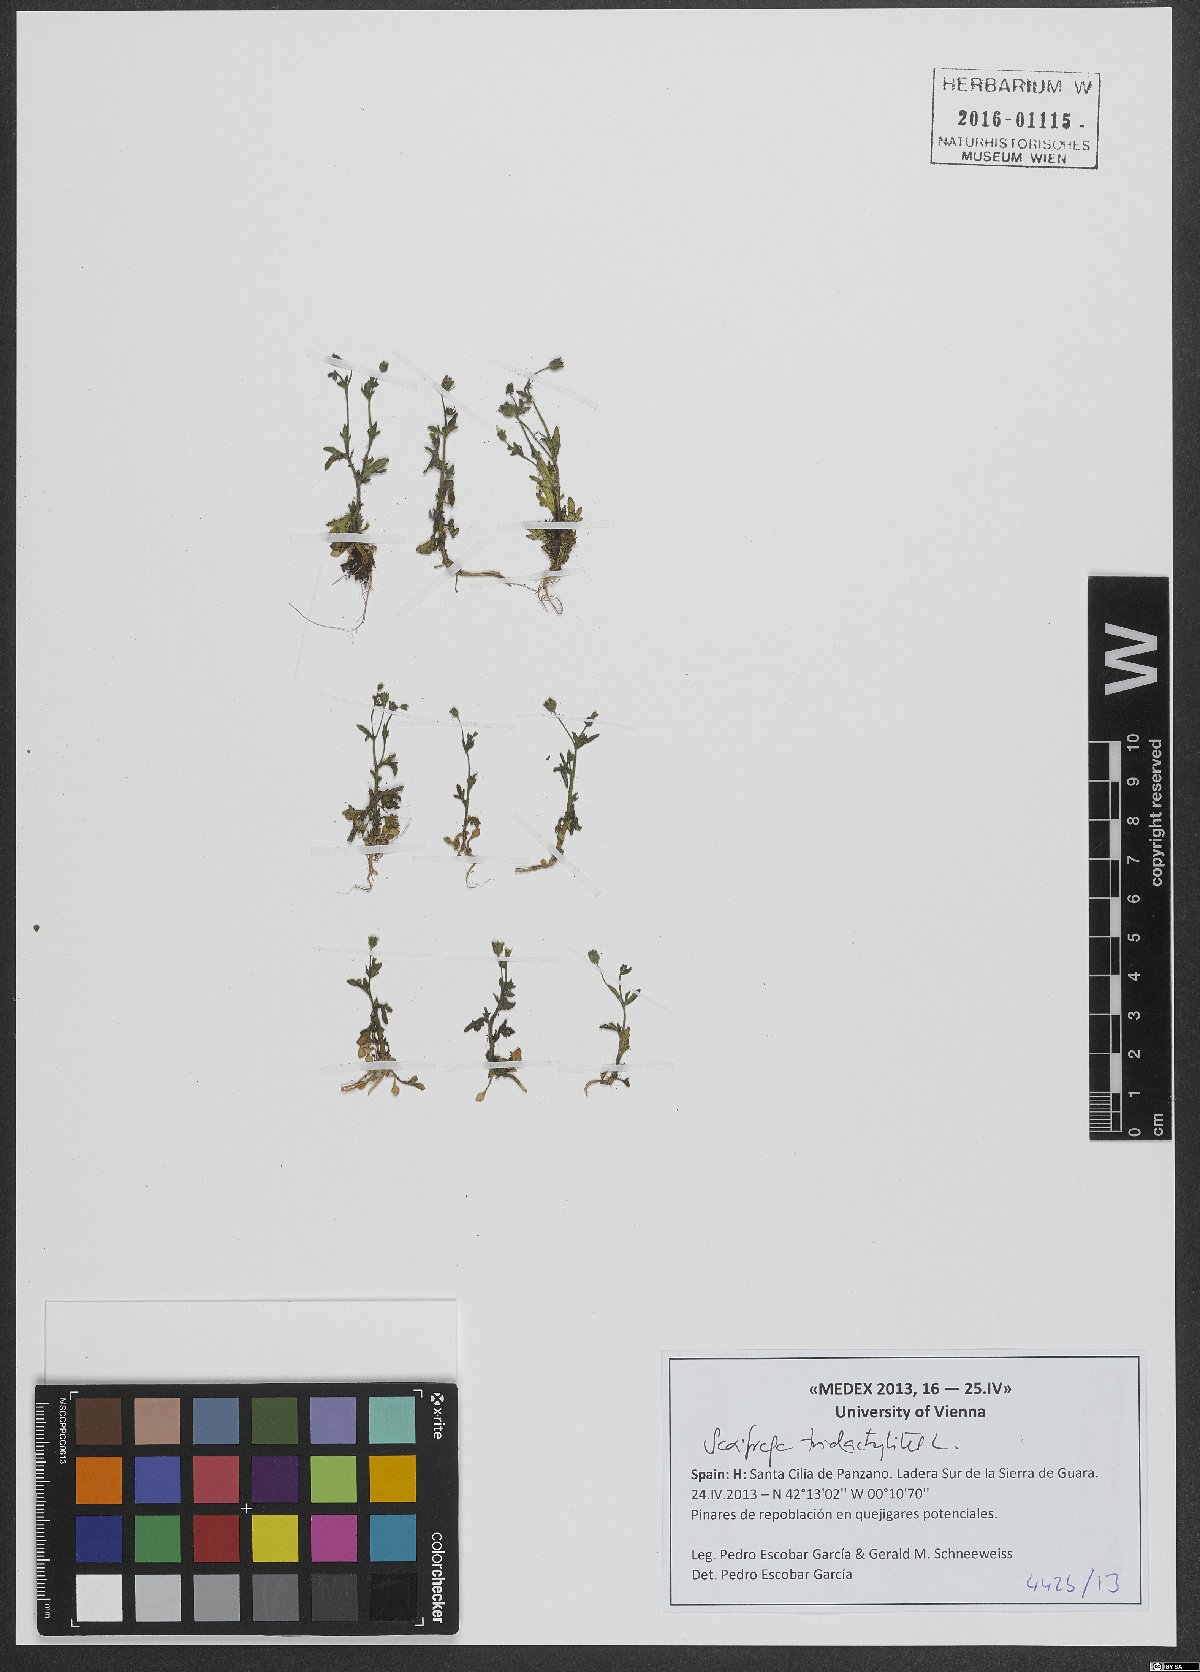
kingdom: Plantae
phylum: Tracheophyta
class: Magnoliopsida
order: Saxifragales
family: Saxifragaceae
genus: Saxifraga
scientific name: Saxifraga tridactylites
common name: Rue-leaved saxifrage
